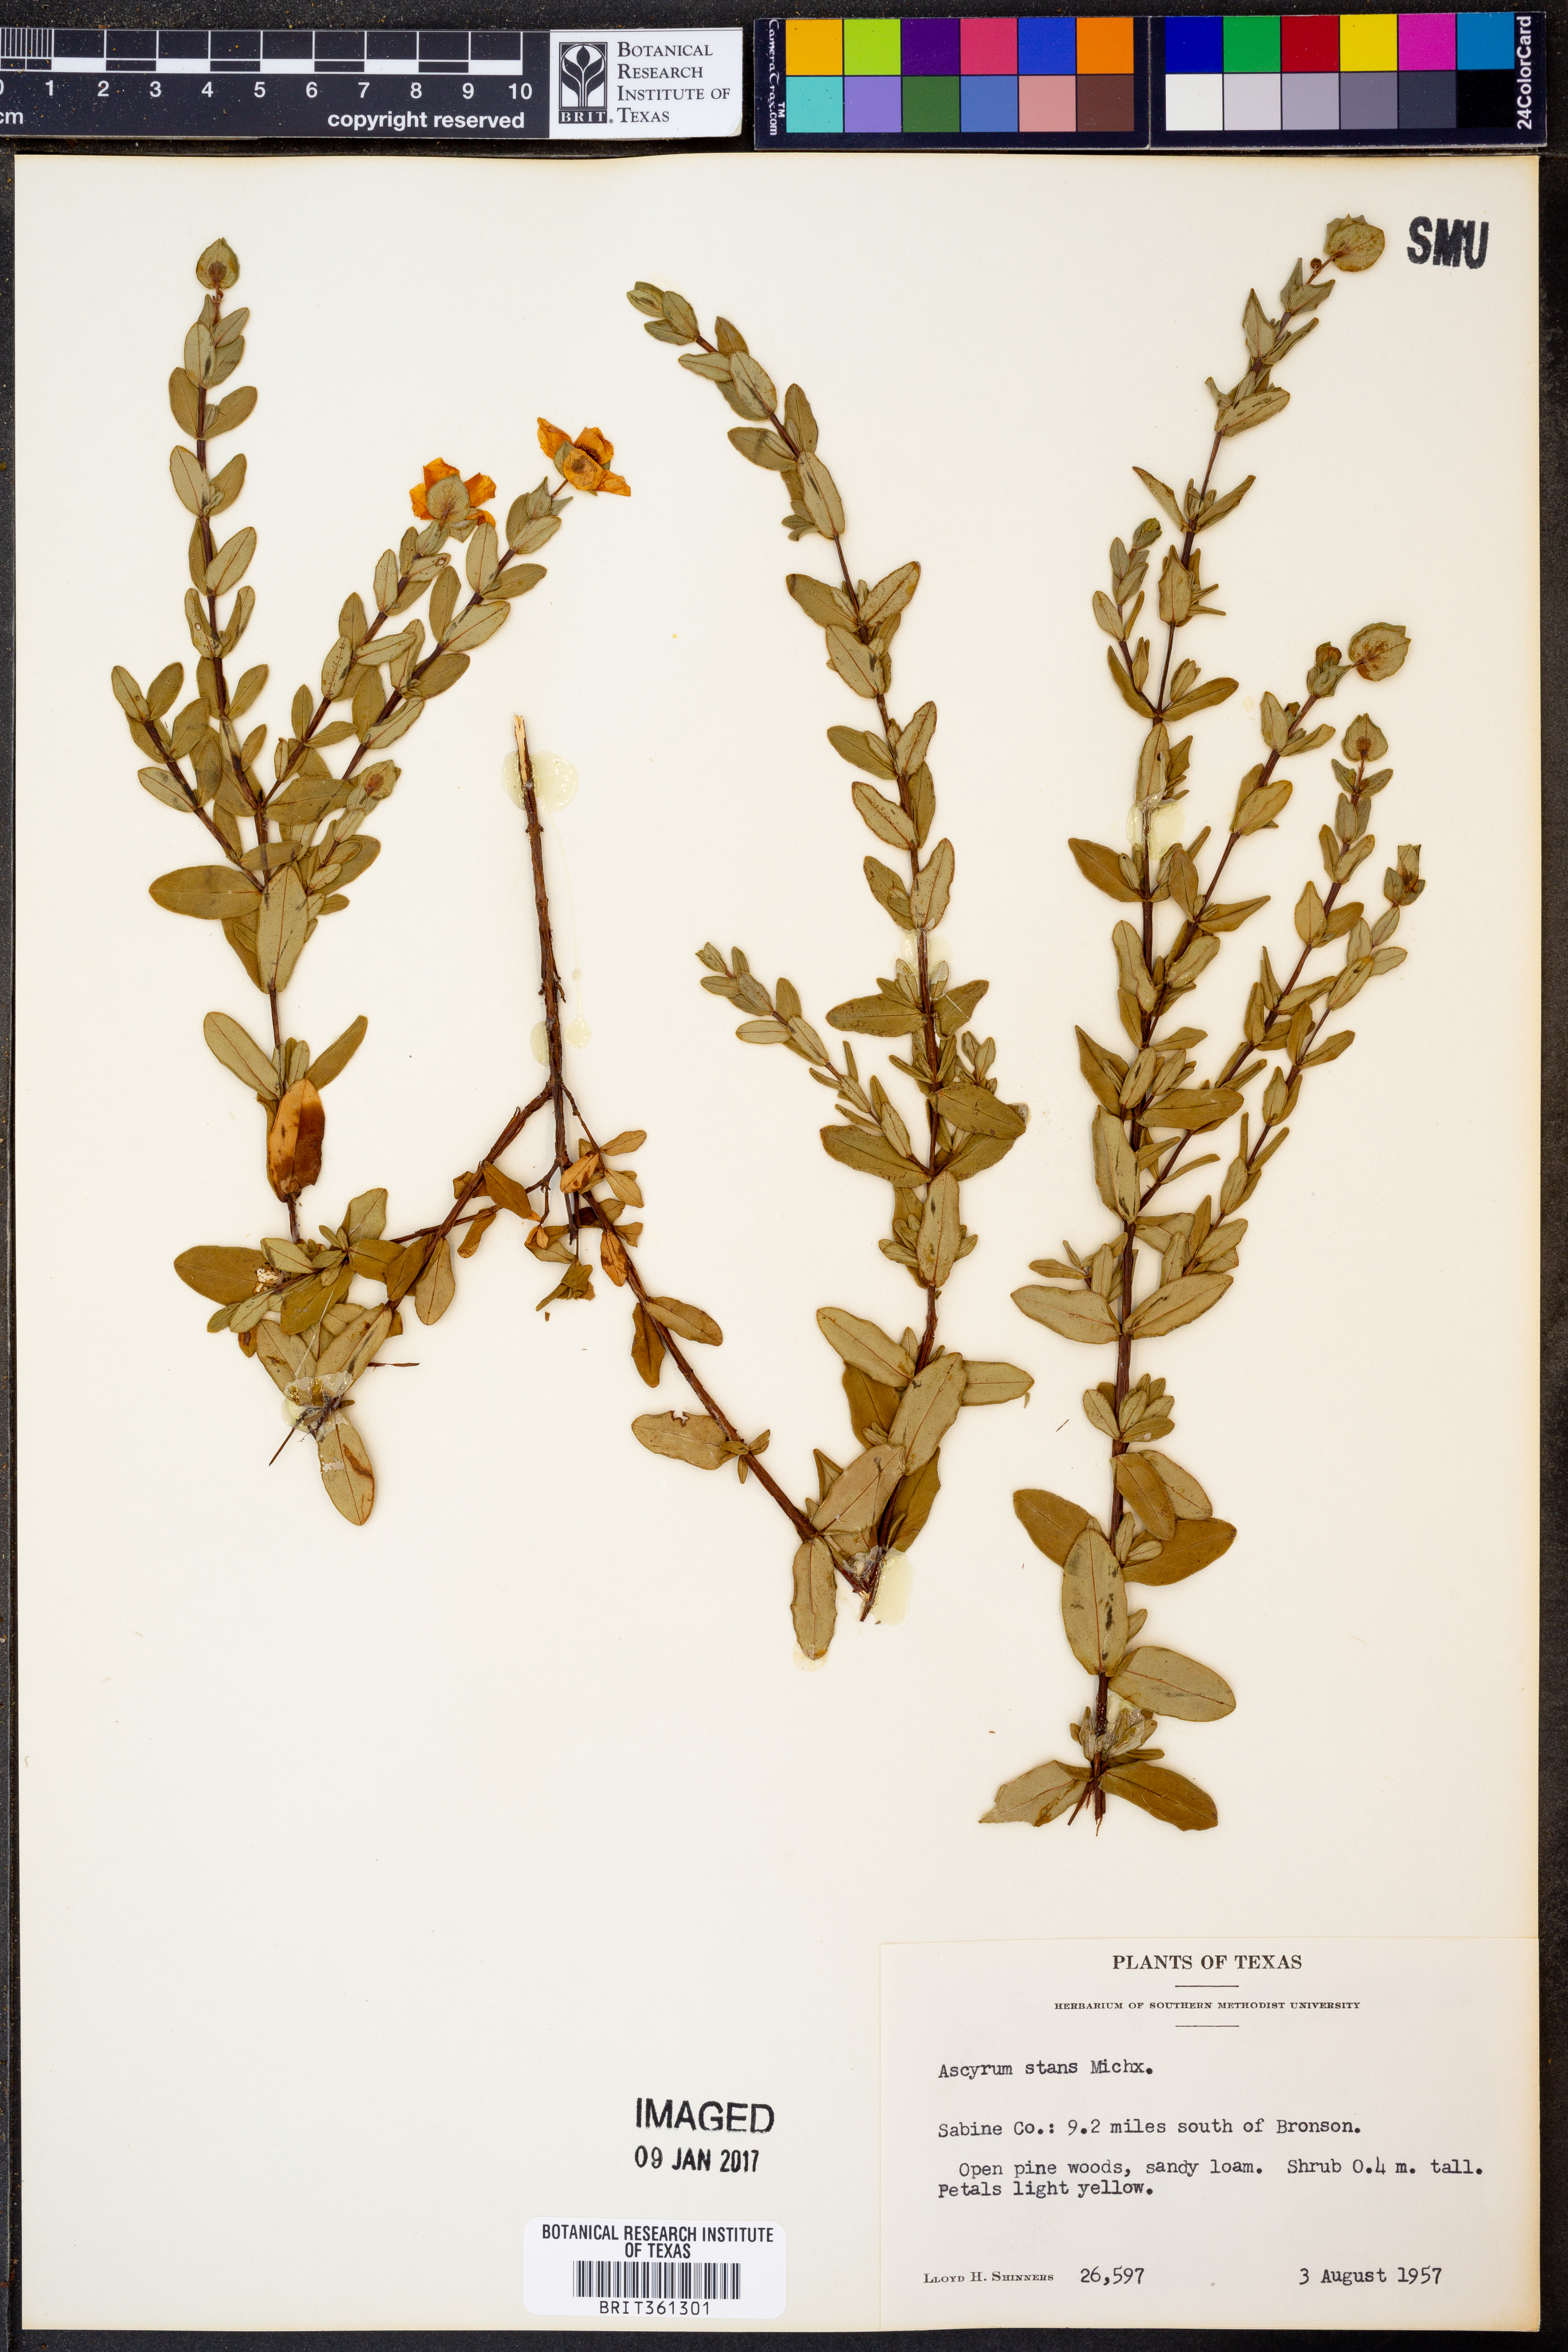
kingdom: Plantae
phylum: Tracheophyta
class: Magnoliopsida
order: Malpighiales
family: Hypericaceae
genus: Hypericum
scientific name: Hypericum crux-andreae
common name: St.-peter's-wort
